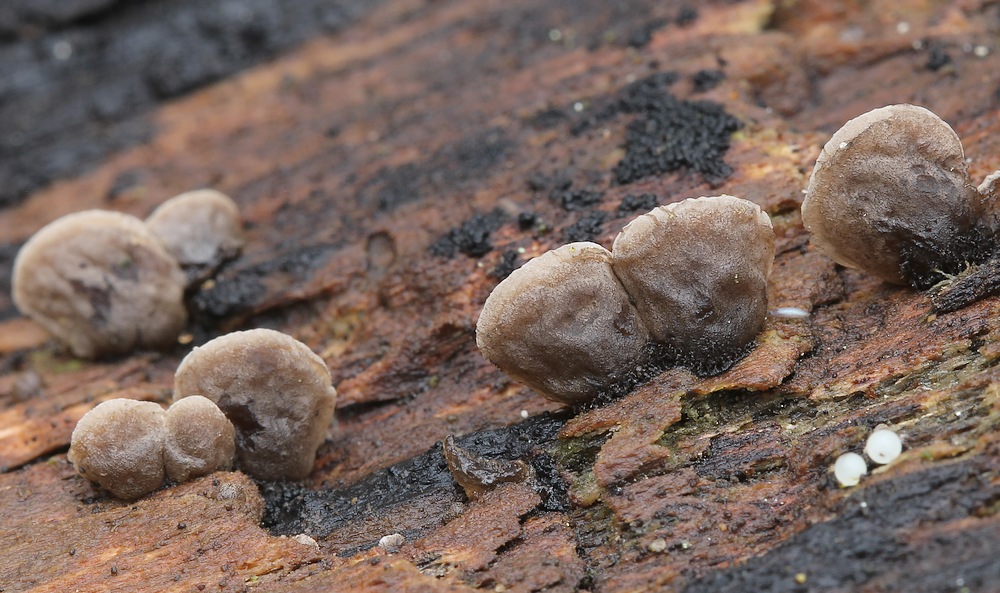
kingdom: Fungi
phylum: Basidiomycota
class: Agaricomycetes
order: Agaricales
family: Pleurotaceae
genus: Resupinatus
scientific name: Resupinatus applicatus
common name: lysfiltet barkhat
